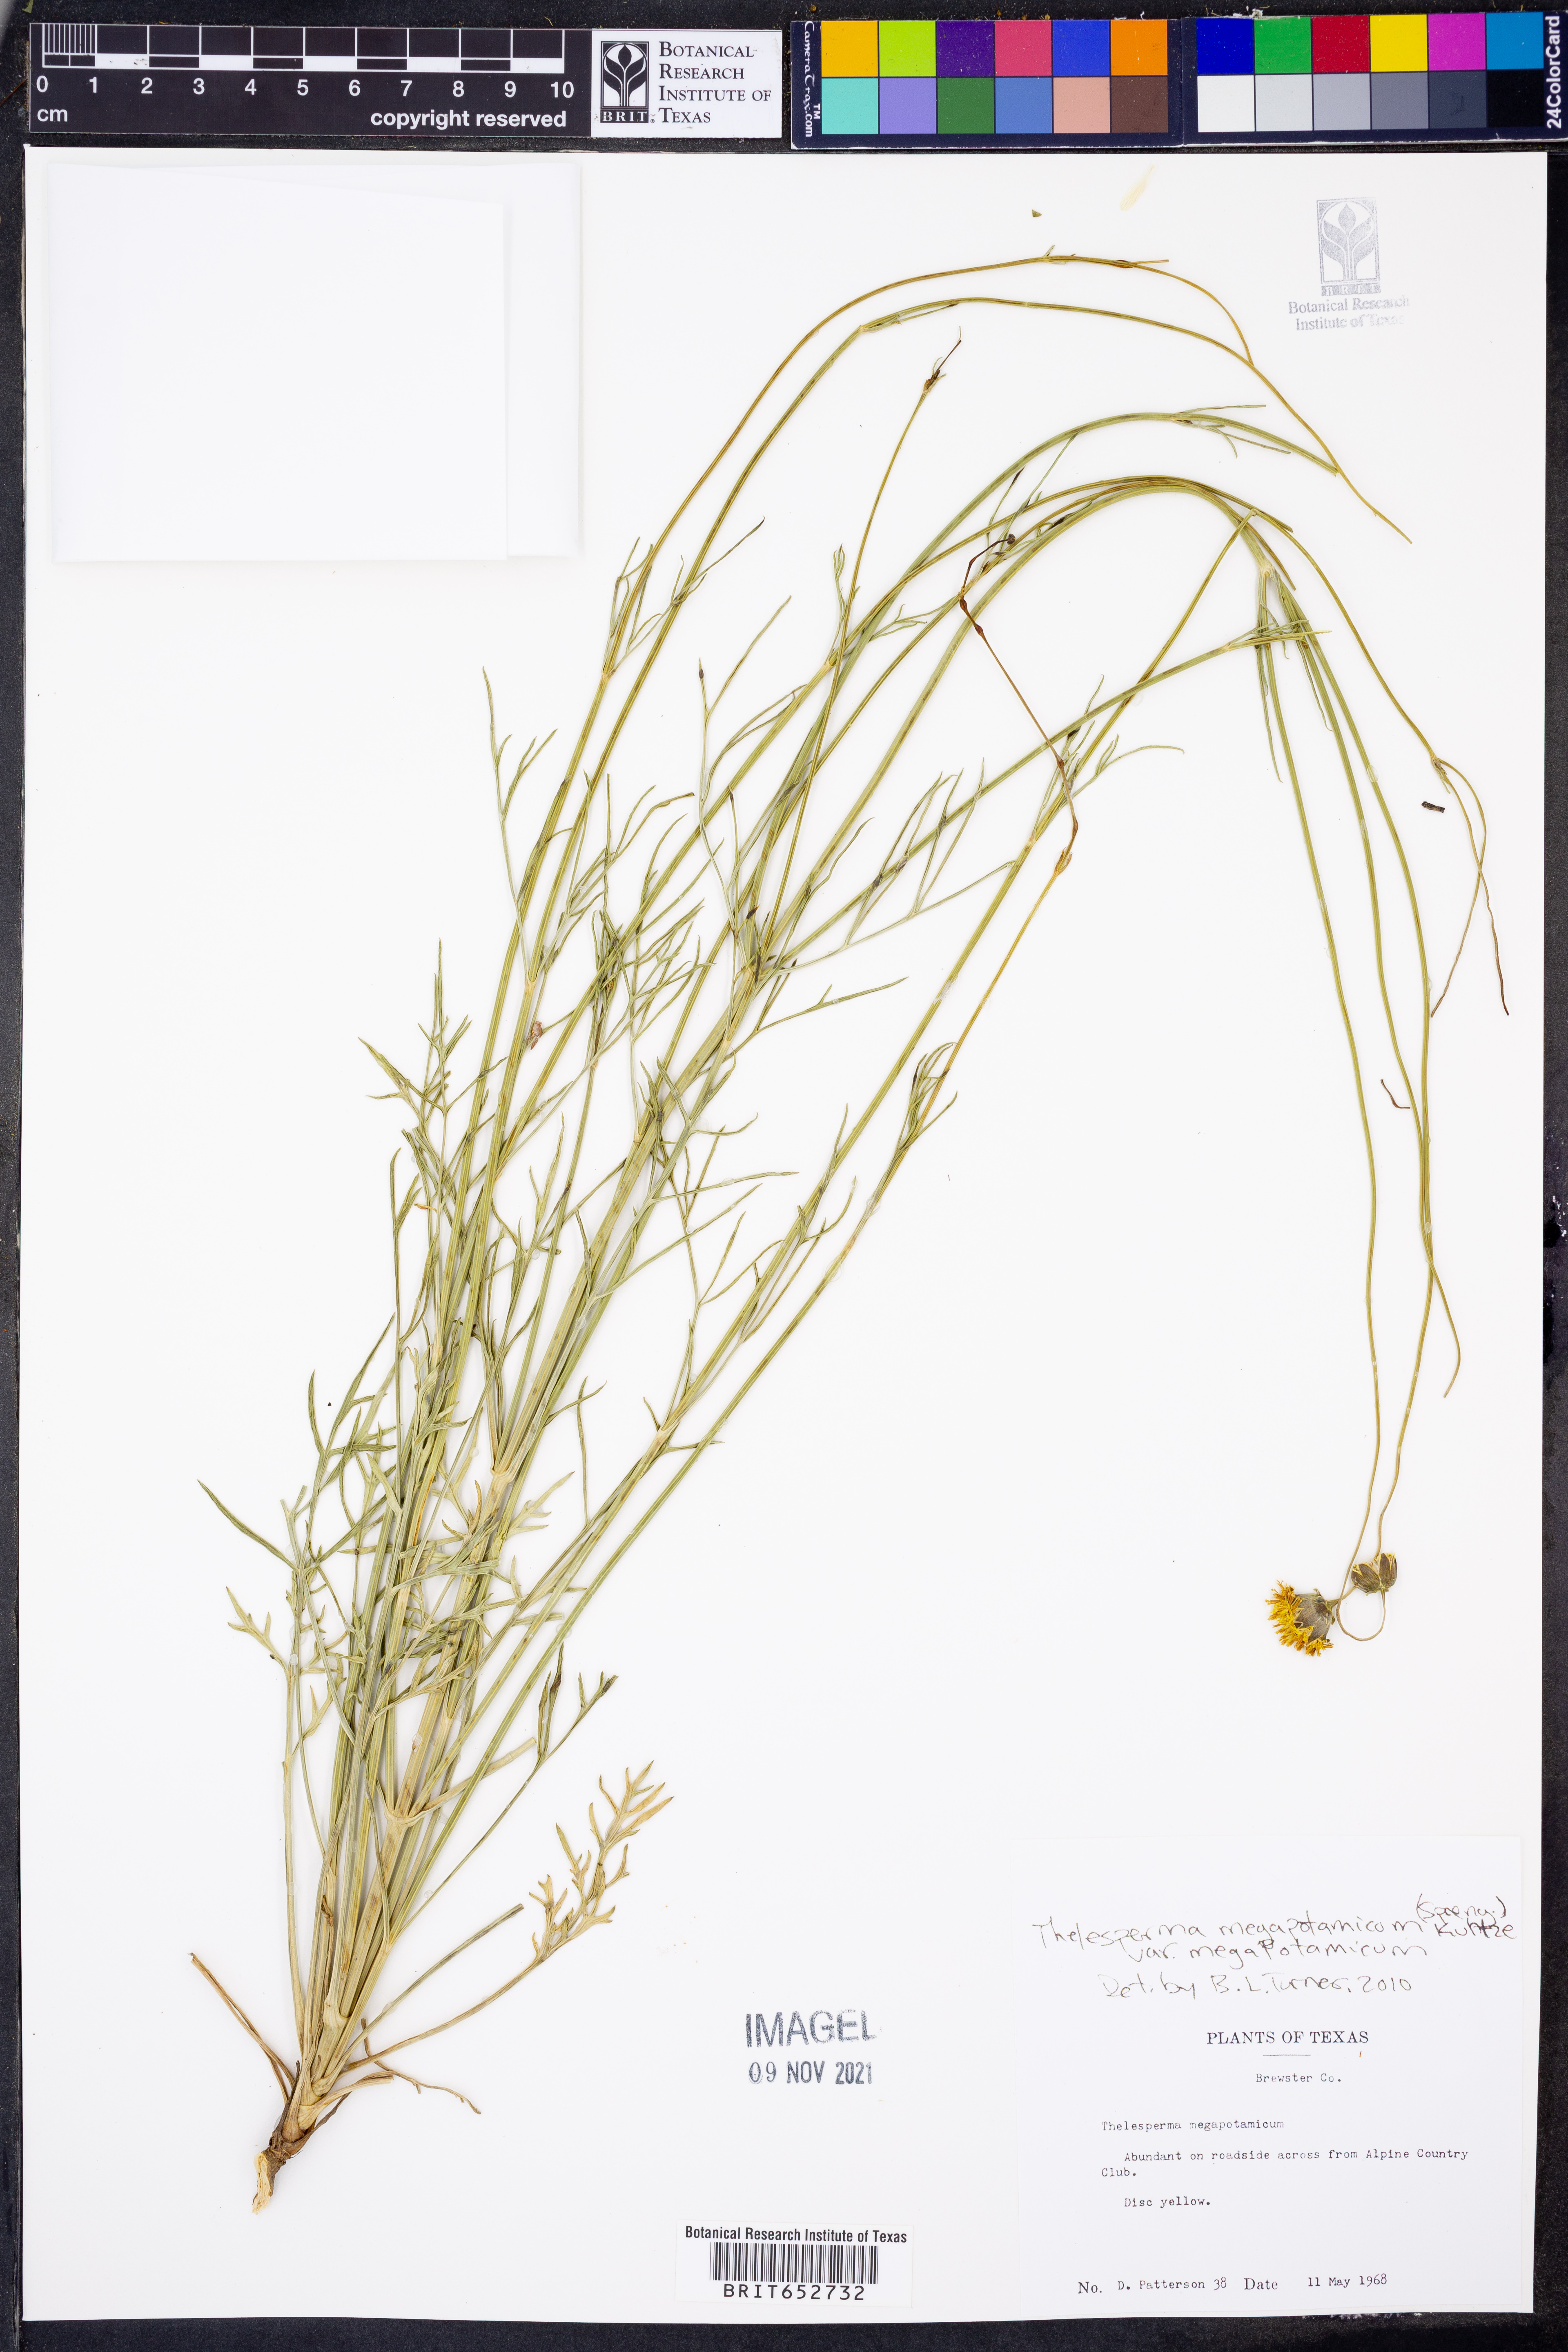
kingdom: Plantae
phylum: Tracheophyta
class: Magnoliopsida
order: Asterales
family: Asteraceae
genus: Thelesperma
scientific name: Thelesperma megapotamicum
